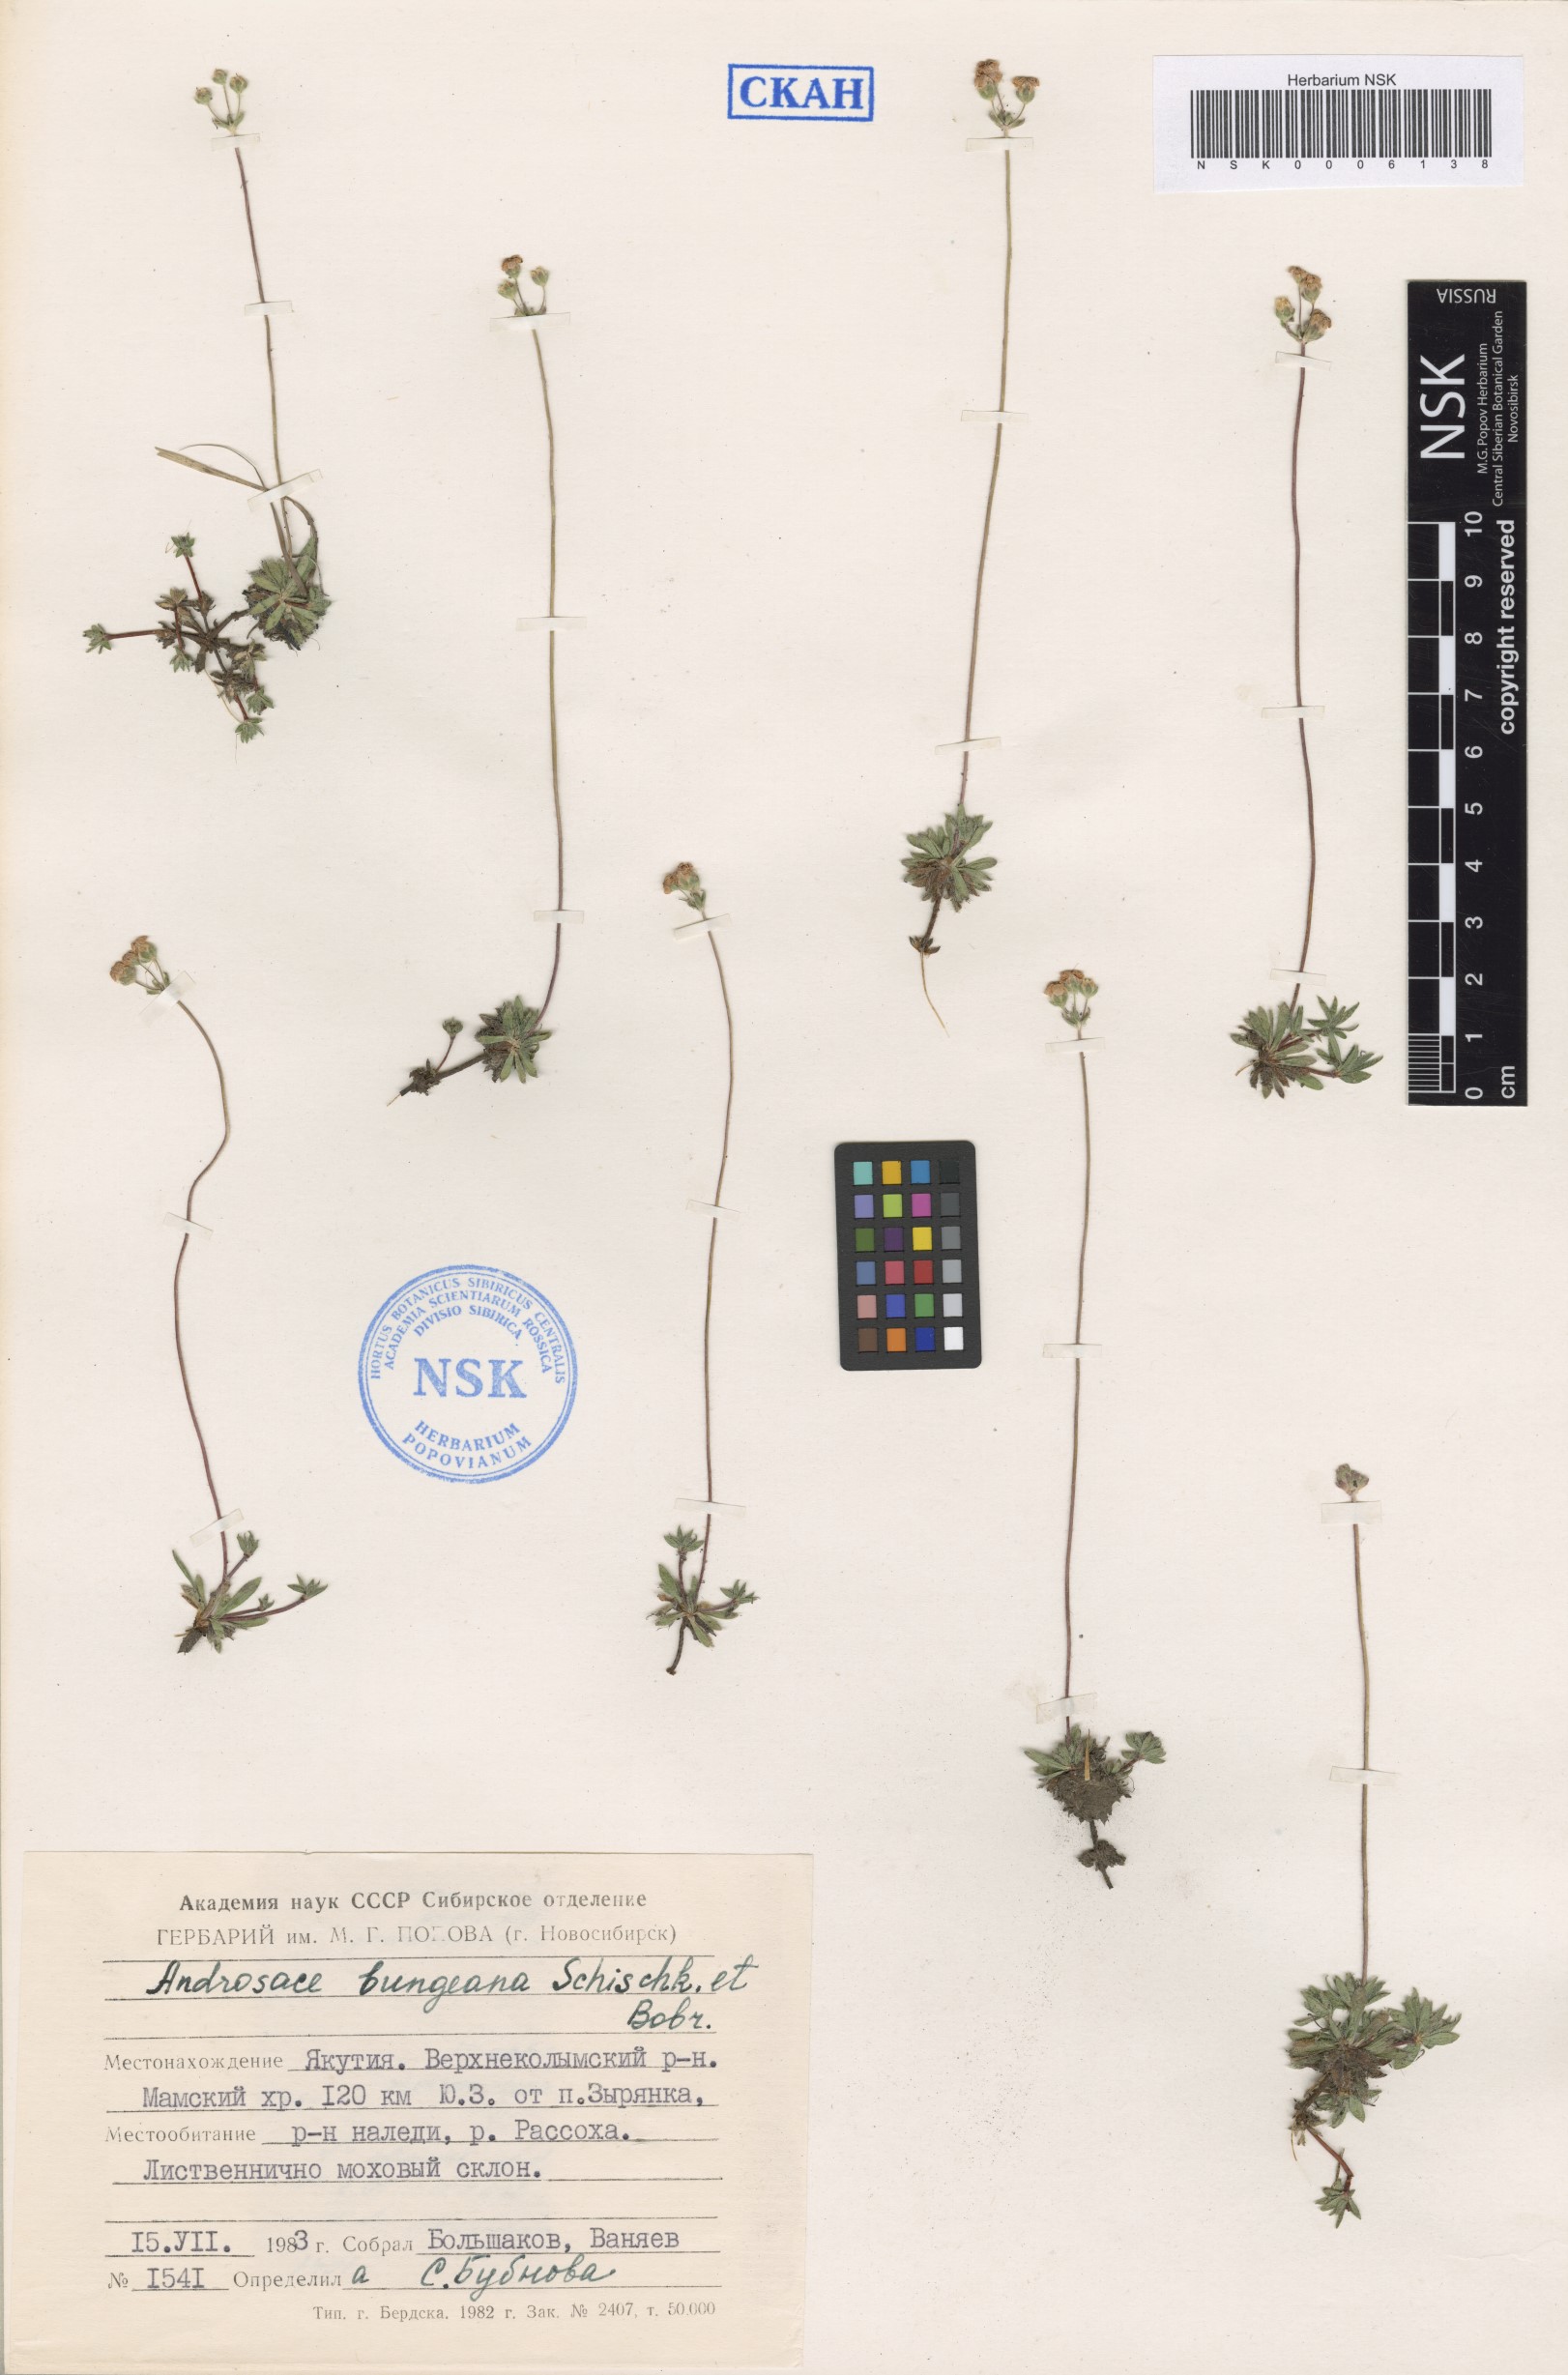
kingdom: Plantae
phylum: Tracheophyta
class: Magnoliopsida
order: Ericales
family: Primulaceae
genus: Androsace
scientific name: Androsace bungeana
